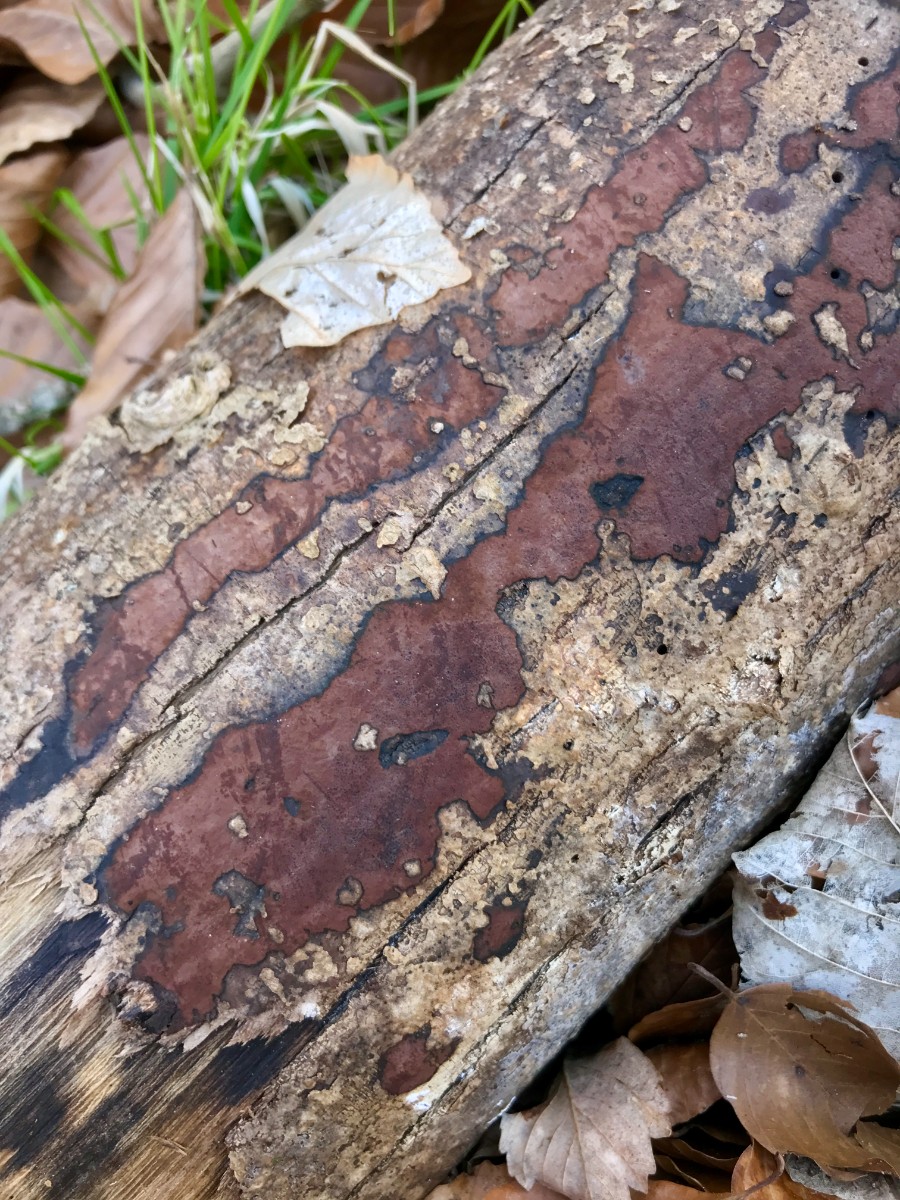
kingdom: Fungi
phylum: Ascomycota
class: Sordariomycetes
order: Xylariales
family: Hypoxylaceae
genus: Hypoxylon
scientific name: Hypoxylon petriniae
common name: nedsænket kulbær
